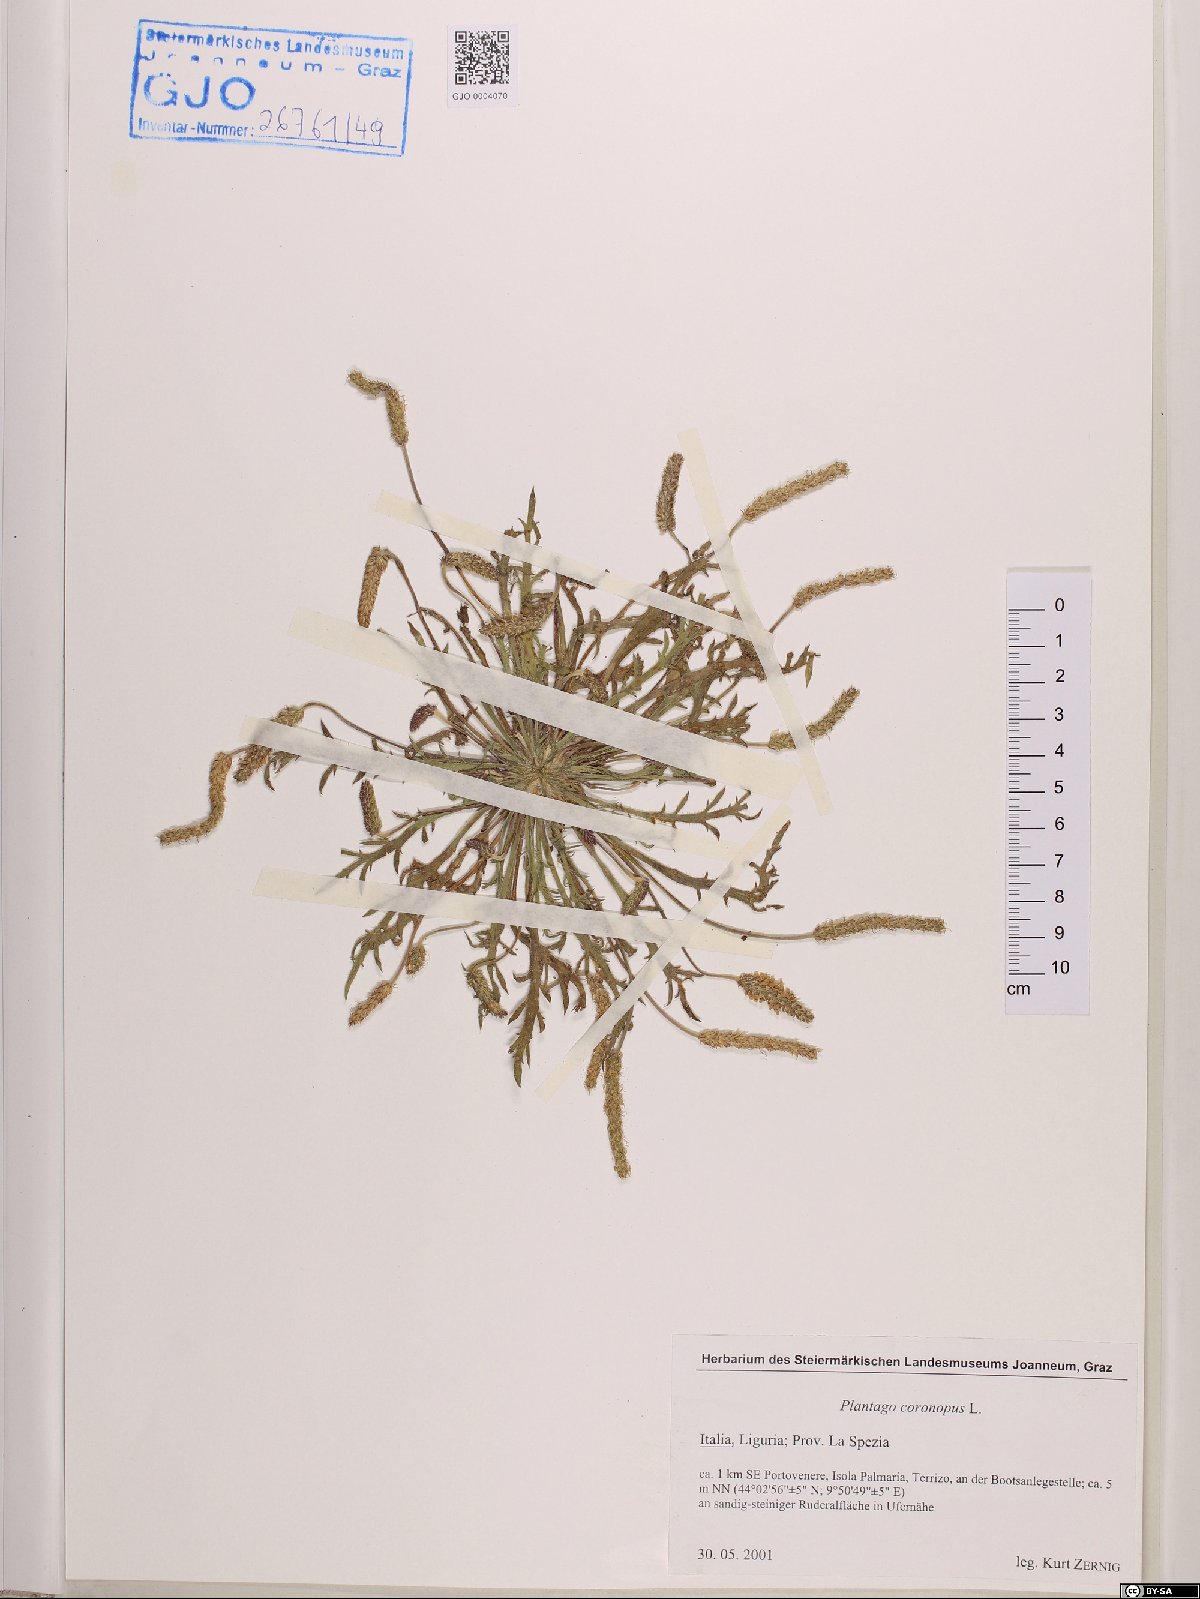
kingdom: Plantae
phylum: Tracheophyta
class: Magnoliopsida
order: Lamiales
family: Plantaginaceae
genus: Plantago
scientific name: Plantago coronopus
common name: Buck's-horn plantain
